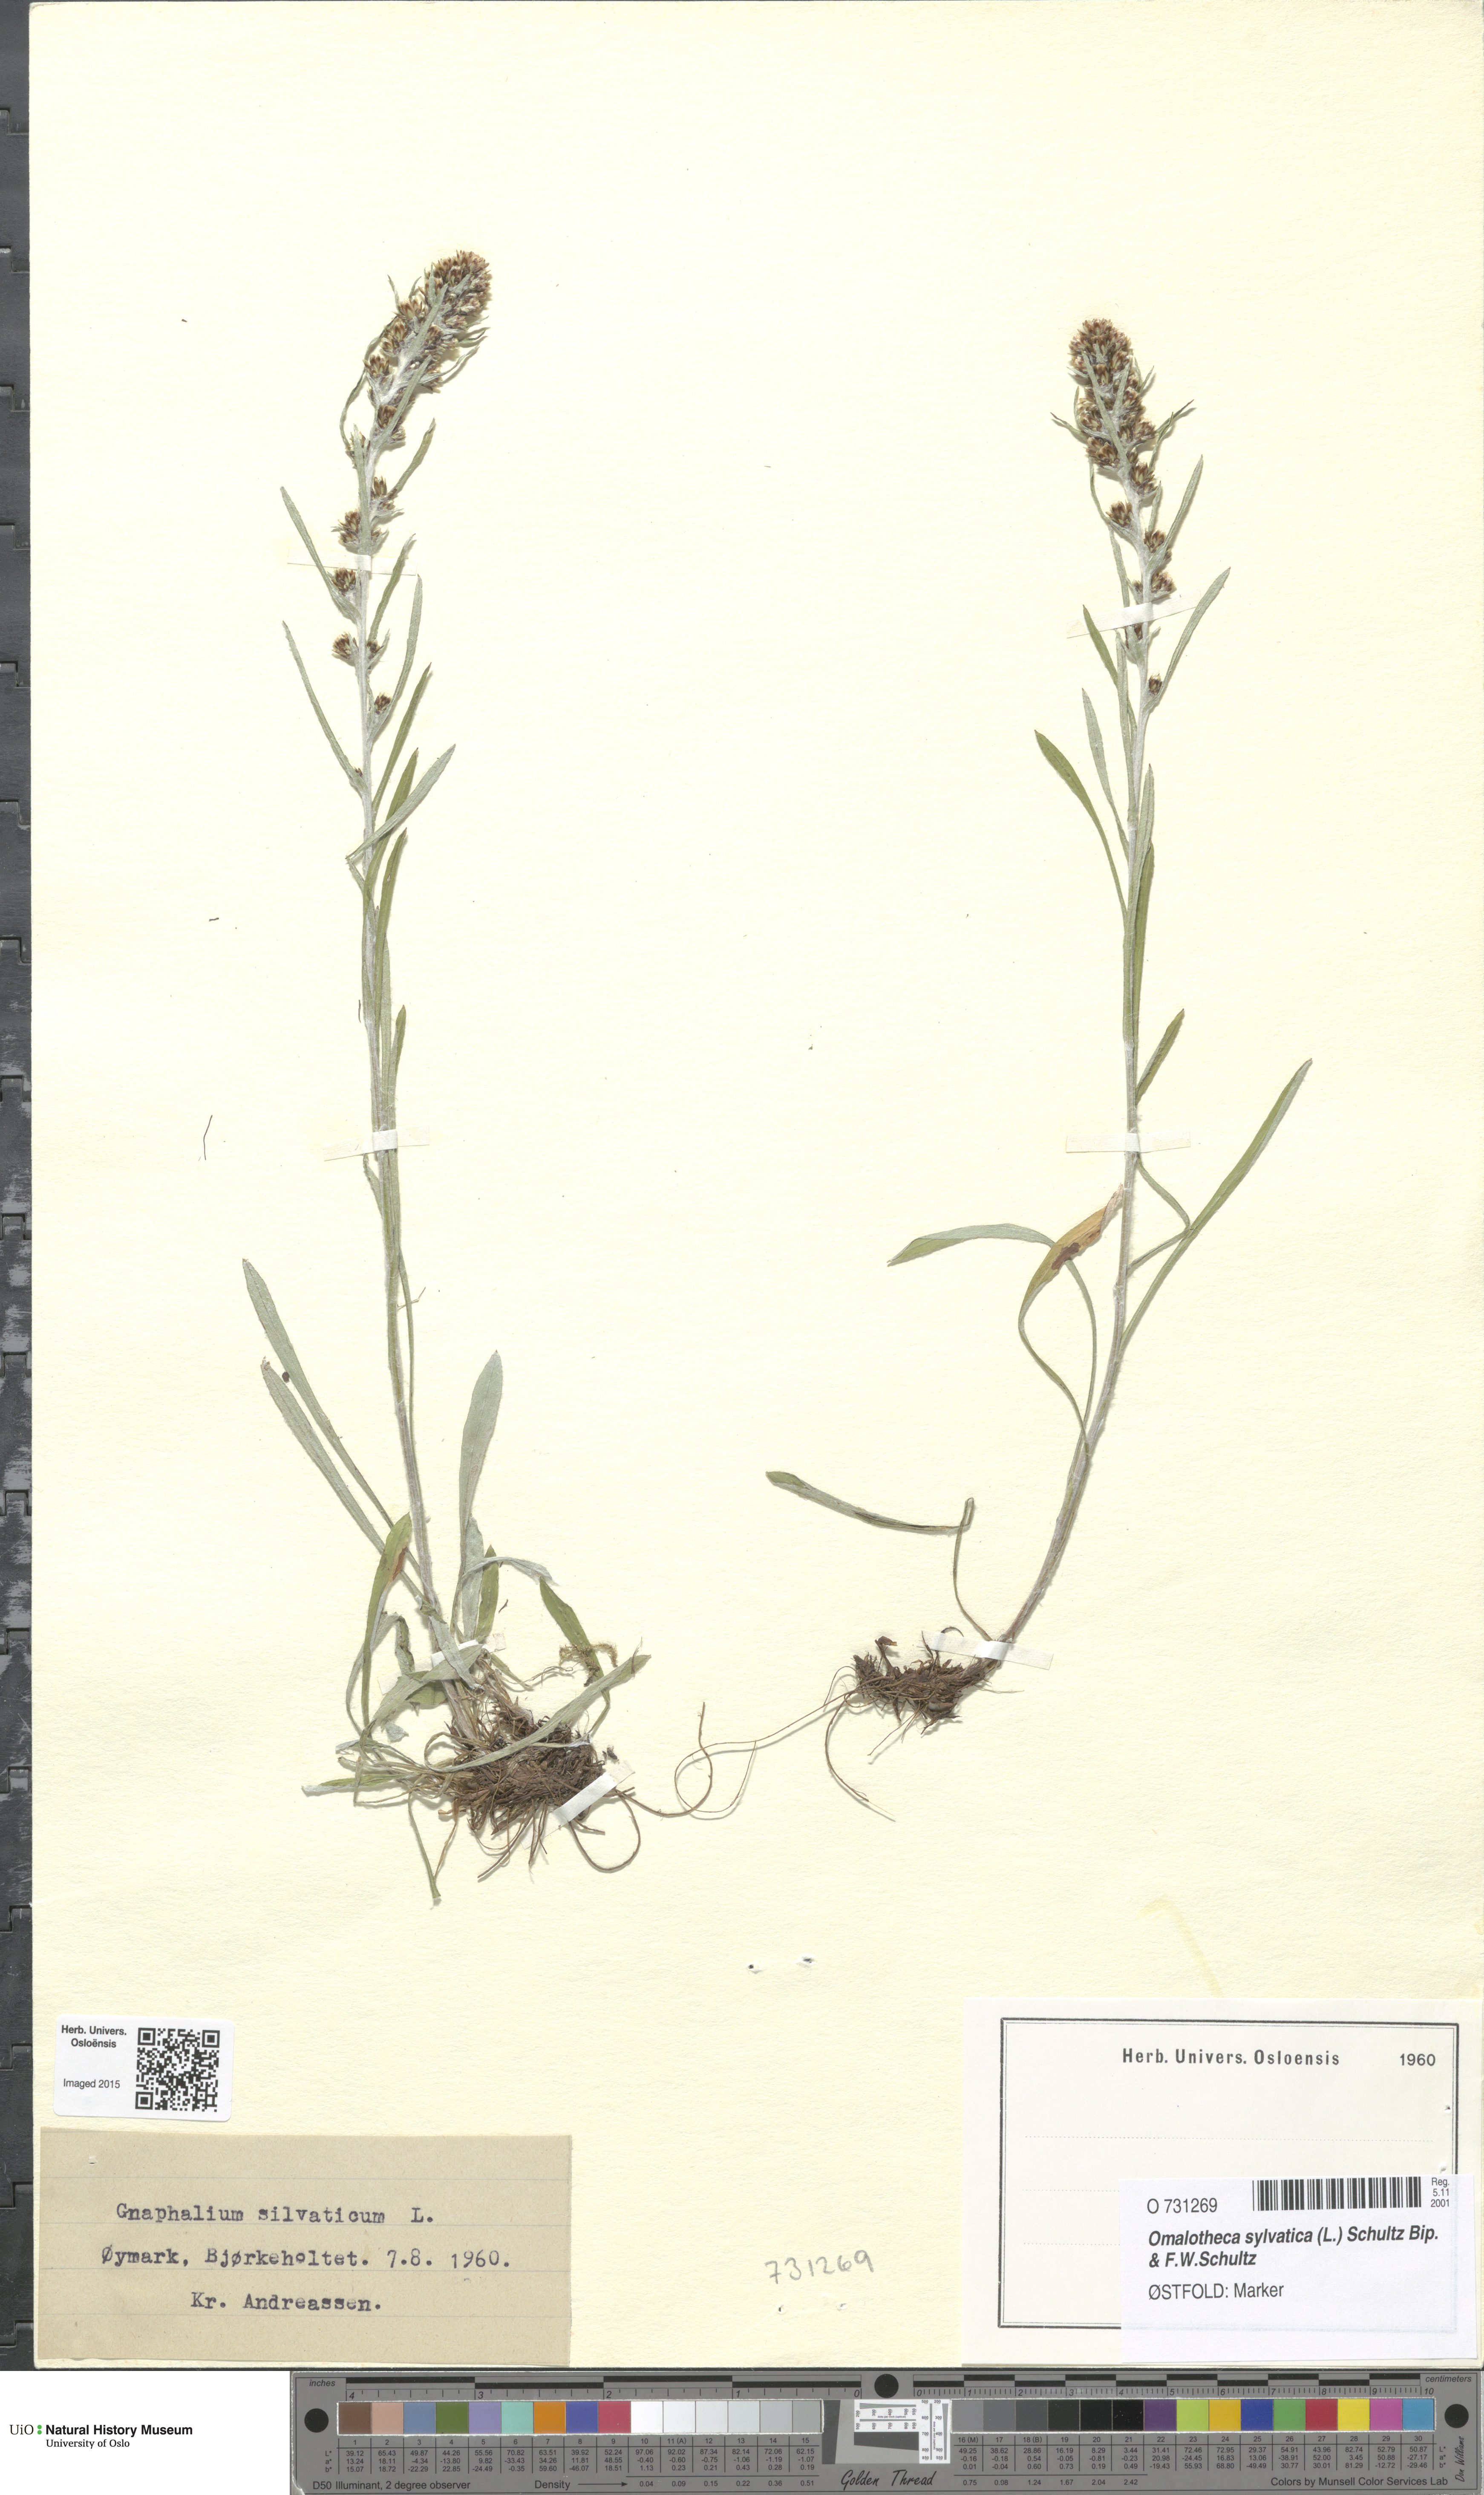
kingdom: Plantae
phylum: Tracheophyta
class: Magnoliopsida
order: Asterales
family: Asteraceae
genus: Omalotheca
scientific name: Omalotheca sylvatica
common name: Heath cudweed
